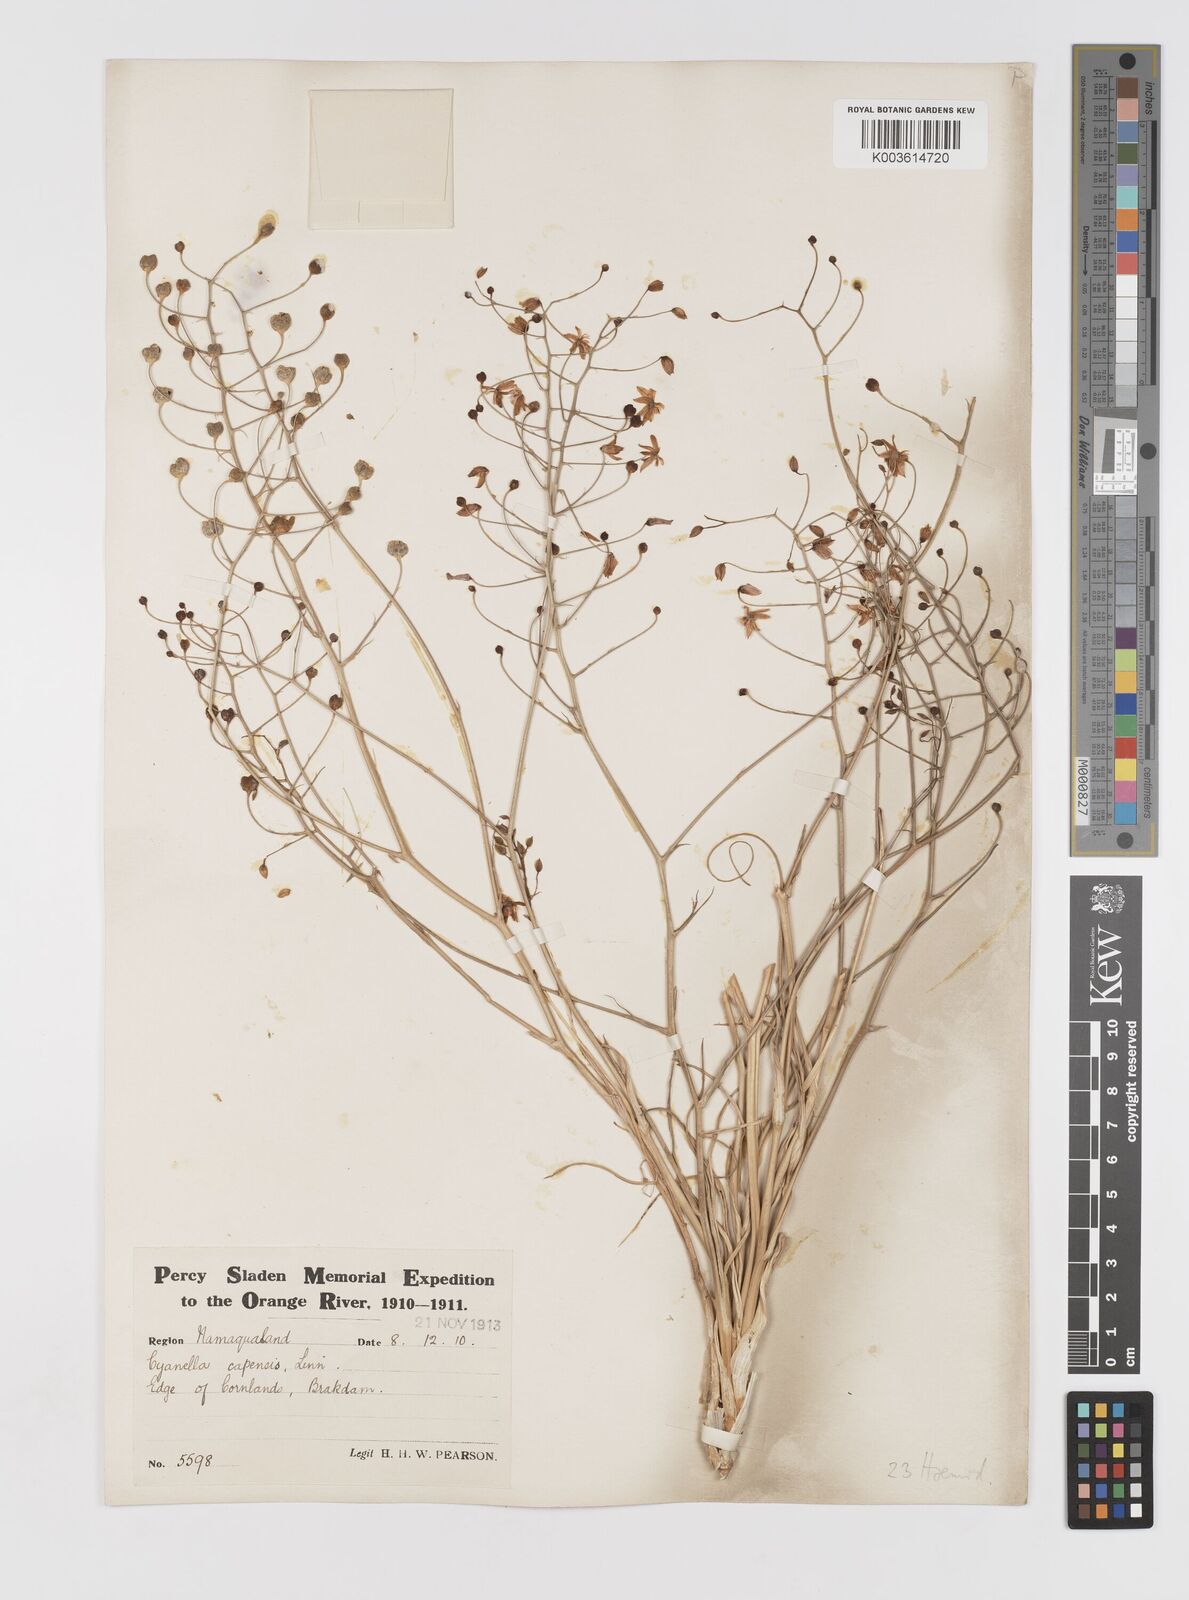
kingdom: Plantae
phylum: Tracheophyta
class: Liliopsida
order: Asparagales
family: Tecophilaeaceae
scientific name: Tecophilaeaceae
